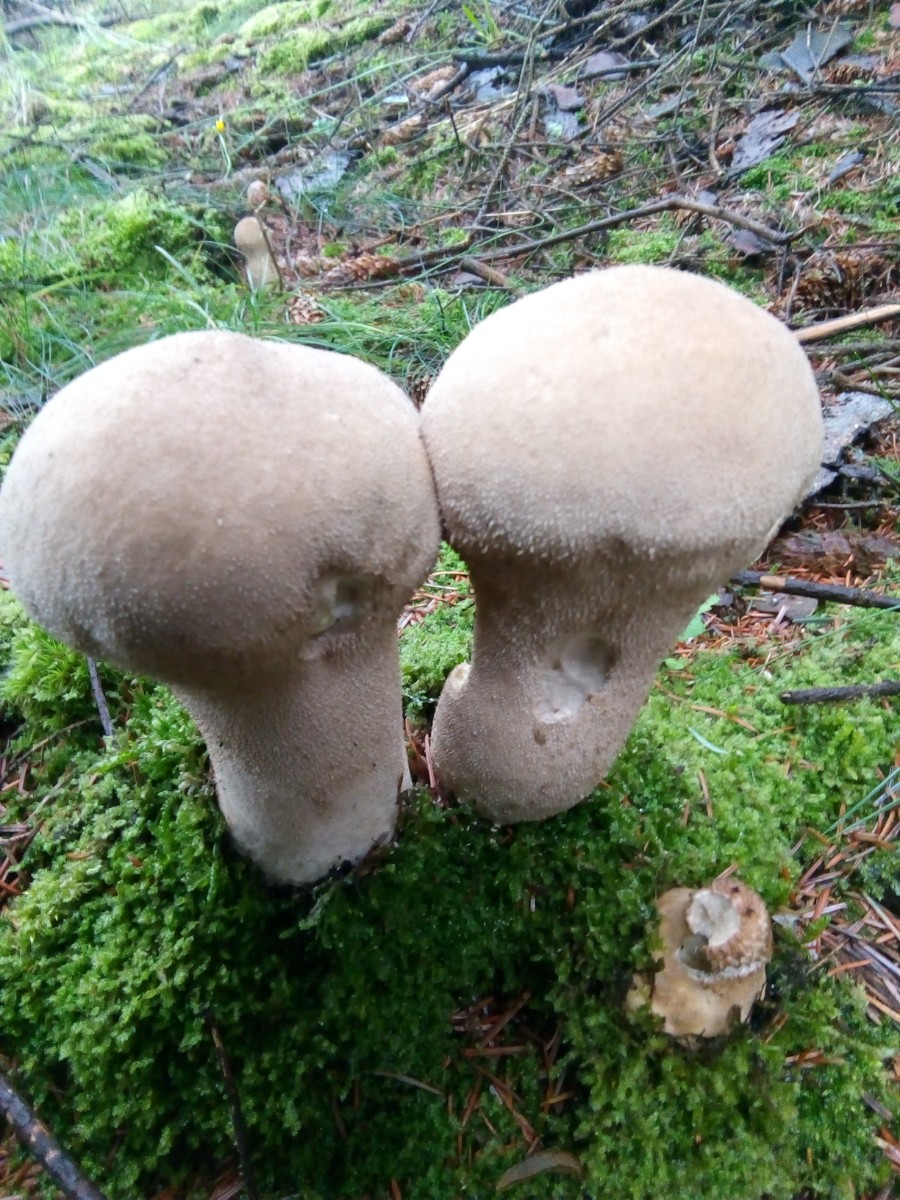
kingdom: Fungi
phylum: Basidiomycota
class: Agaricomycetes
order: Agaricales
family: Lycoperdaceae
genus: Lycoperdon
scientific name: Lycoperdon excipuliforme
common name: højstokket støvbold
